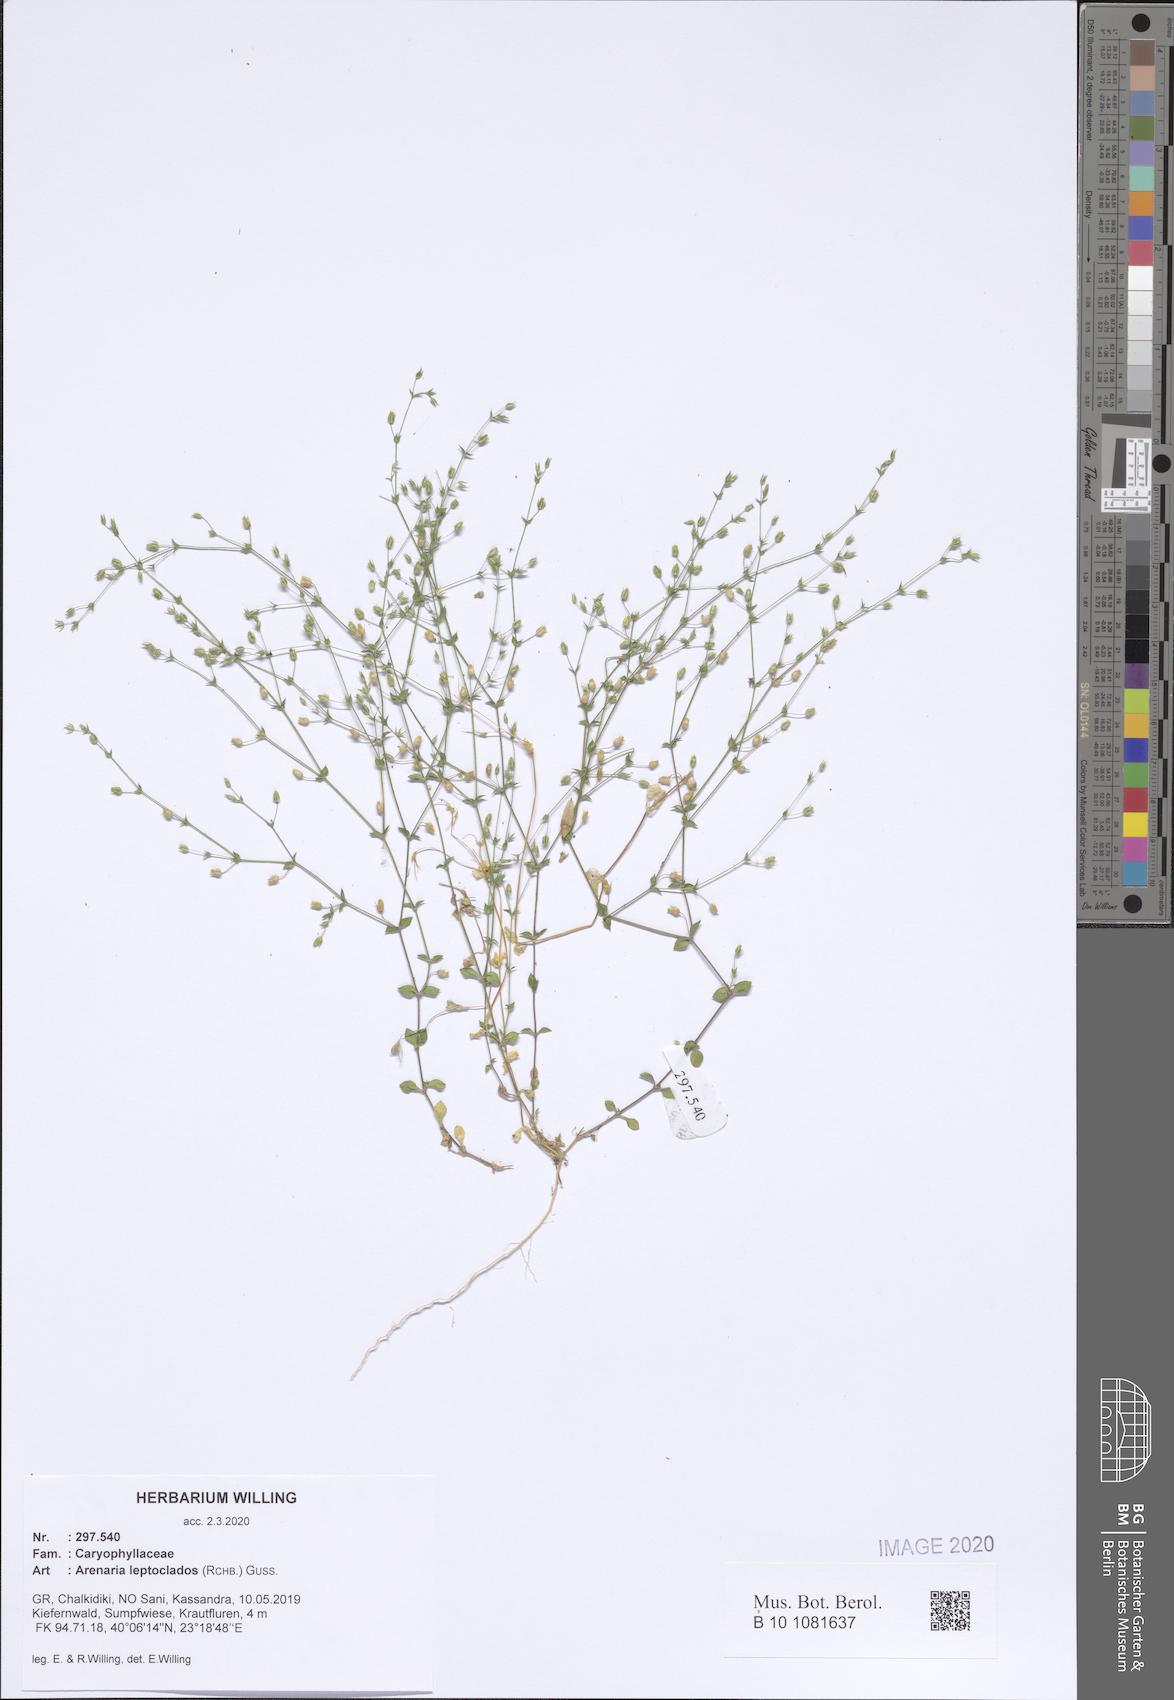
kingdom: Plantae
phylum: Tracheophyta
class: Magnoliopsida
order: Caryophyllales
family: Caryophyllaceae
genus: Arenaria
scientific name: Arenaria leptoclados
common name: Thyme-leaved sandwort
